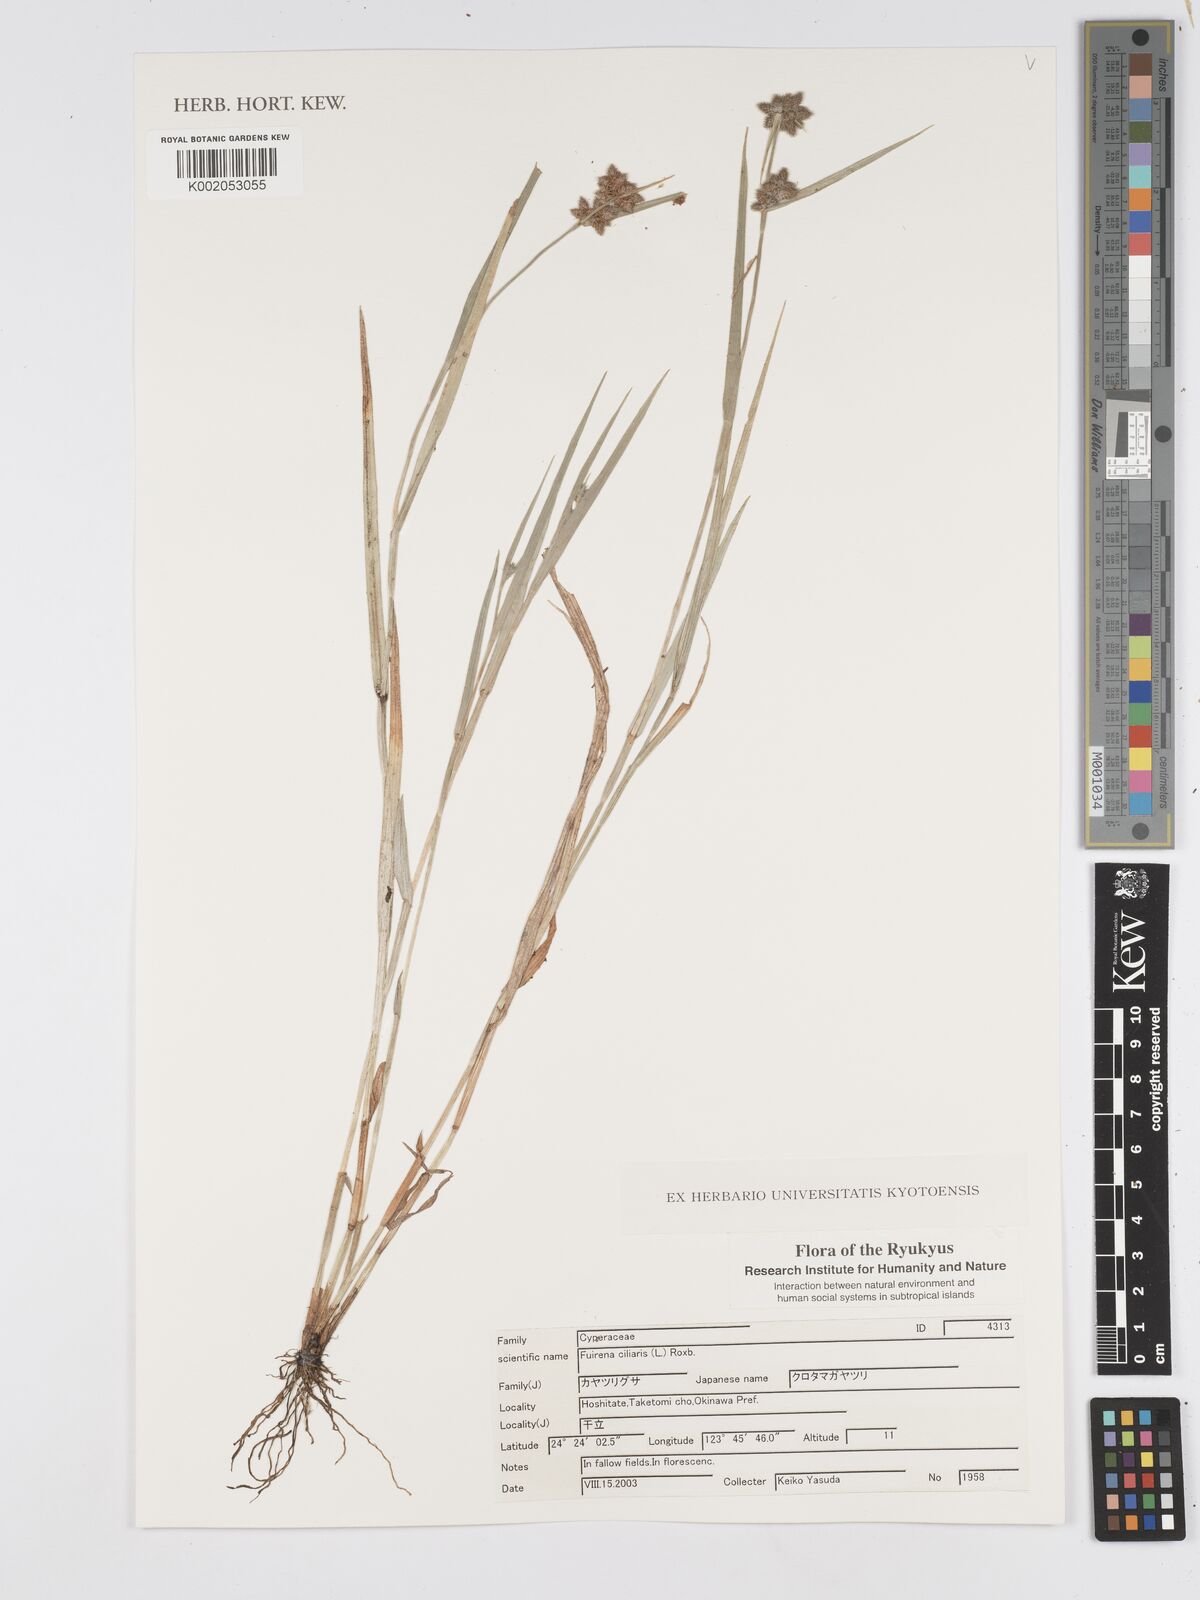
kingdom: Plantae
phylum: Tracheophyta
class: Liliopsida
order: Poales
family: Cyperaceae
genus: Fuirena
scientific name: Fuirena ciliaris
